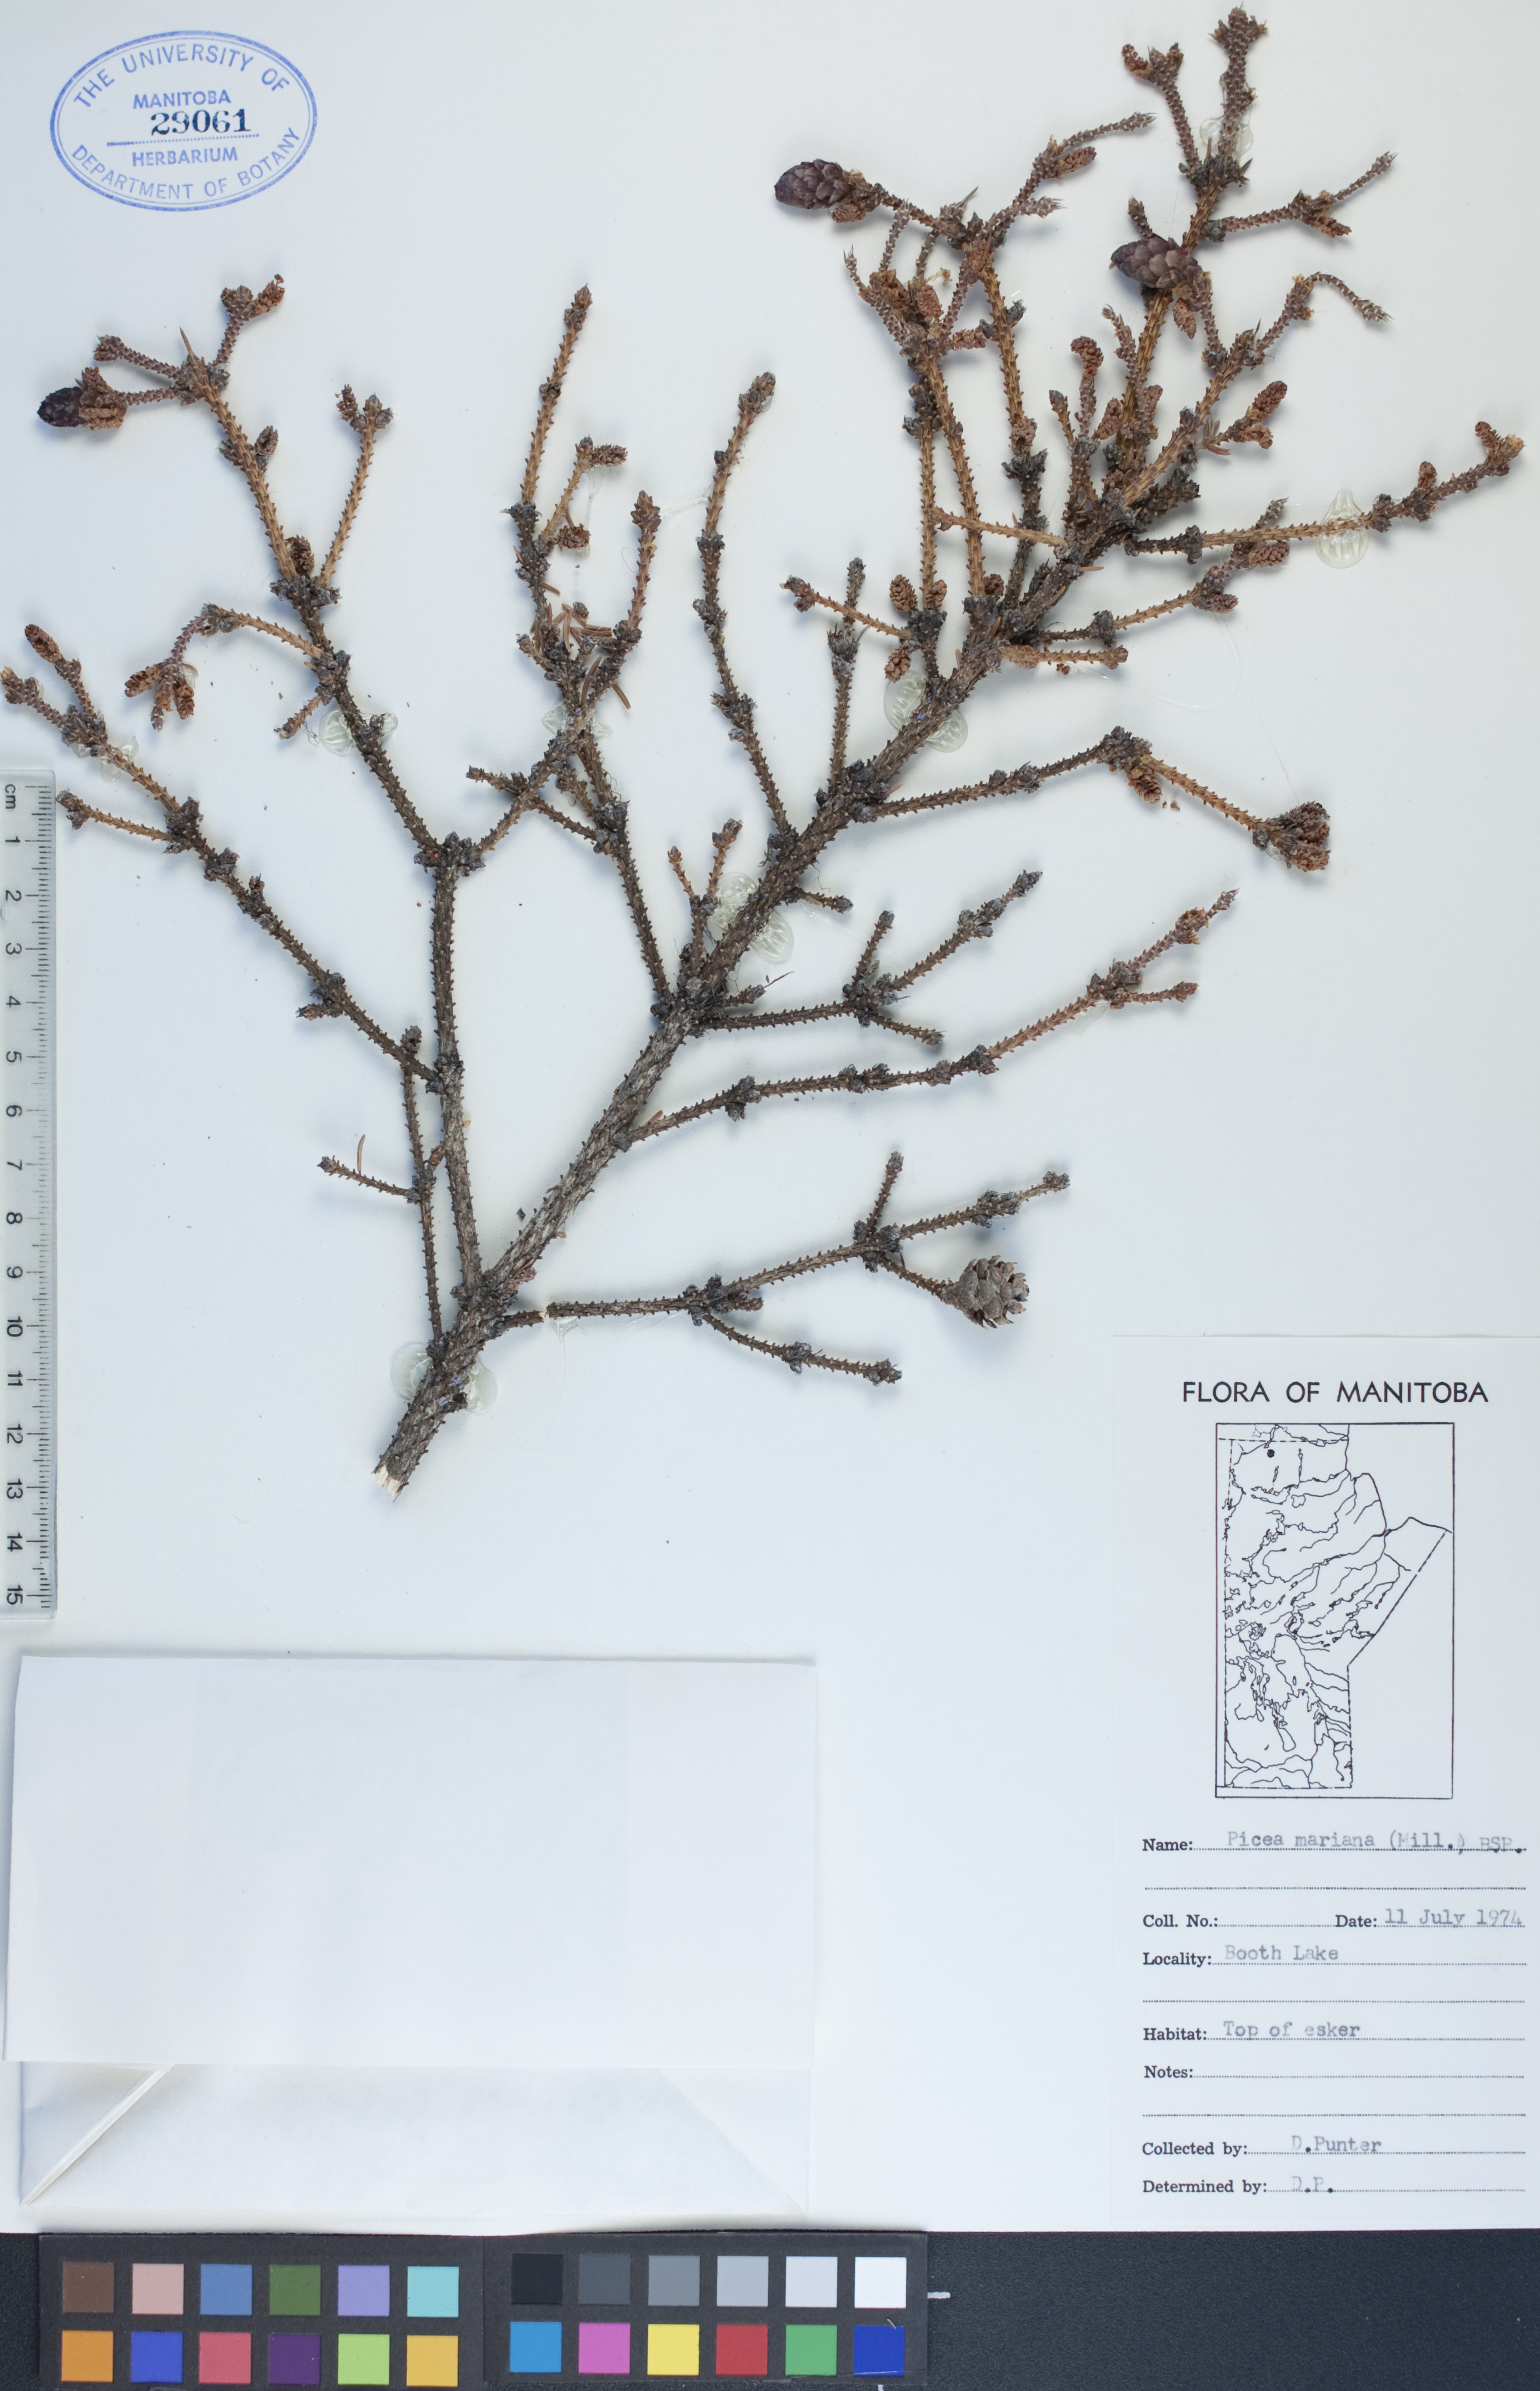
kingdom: Plantae
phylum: Tracheophyta
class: Pinopsida
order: Pinales
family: Pinaceae
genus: Picea
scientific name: Picea mariana
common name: Black spruce
